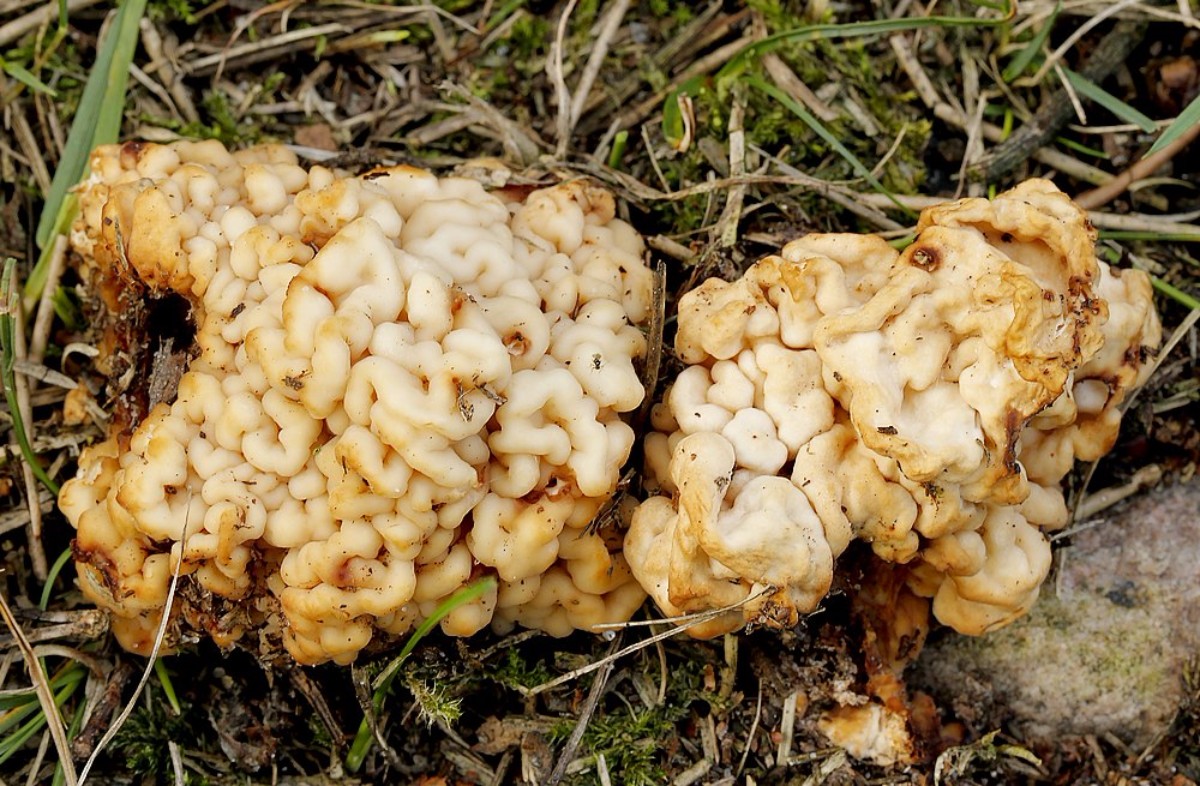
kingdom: Fungi
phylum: Basidiomycota
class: Tremellomycetes
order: Filobasidiales
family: Filobasidiaceae
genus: Syzygospora
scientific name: Syzygospora tumefaciens
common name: fladhatte-snyltehjerne
